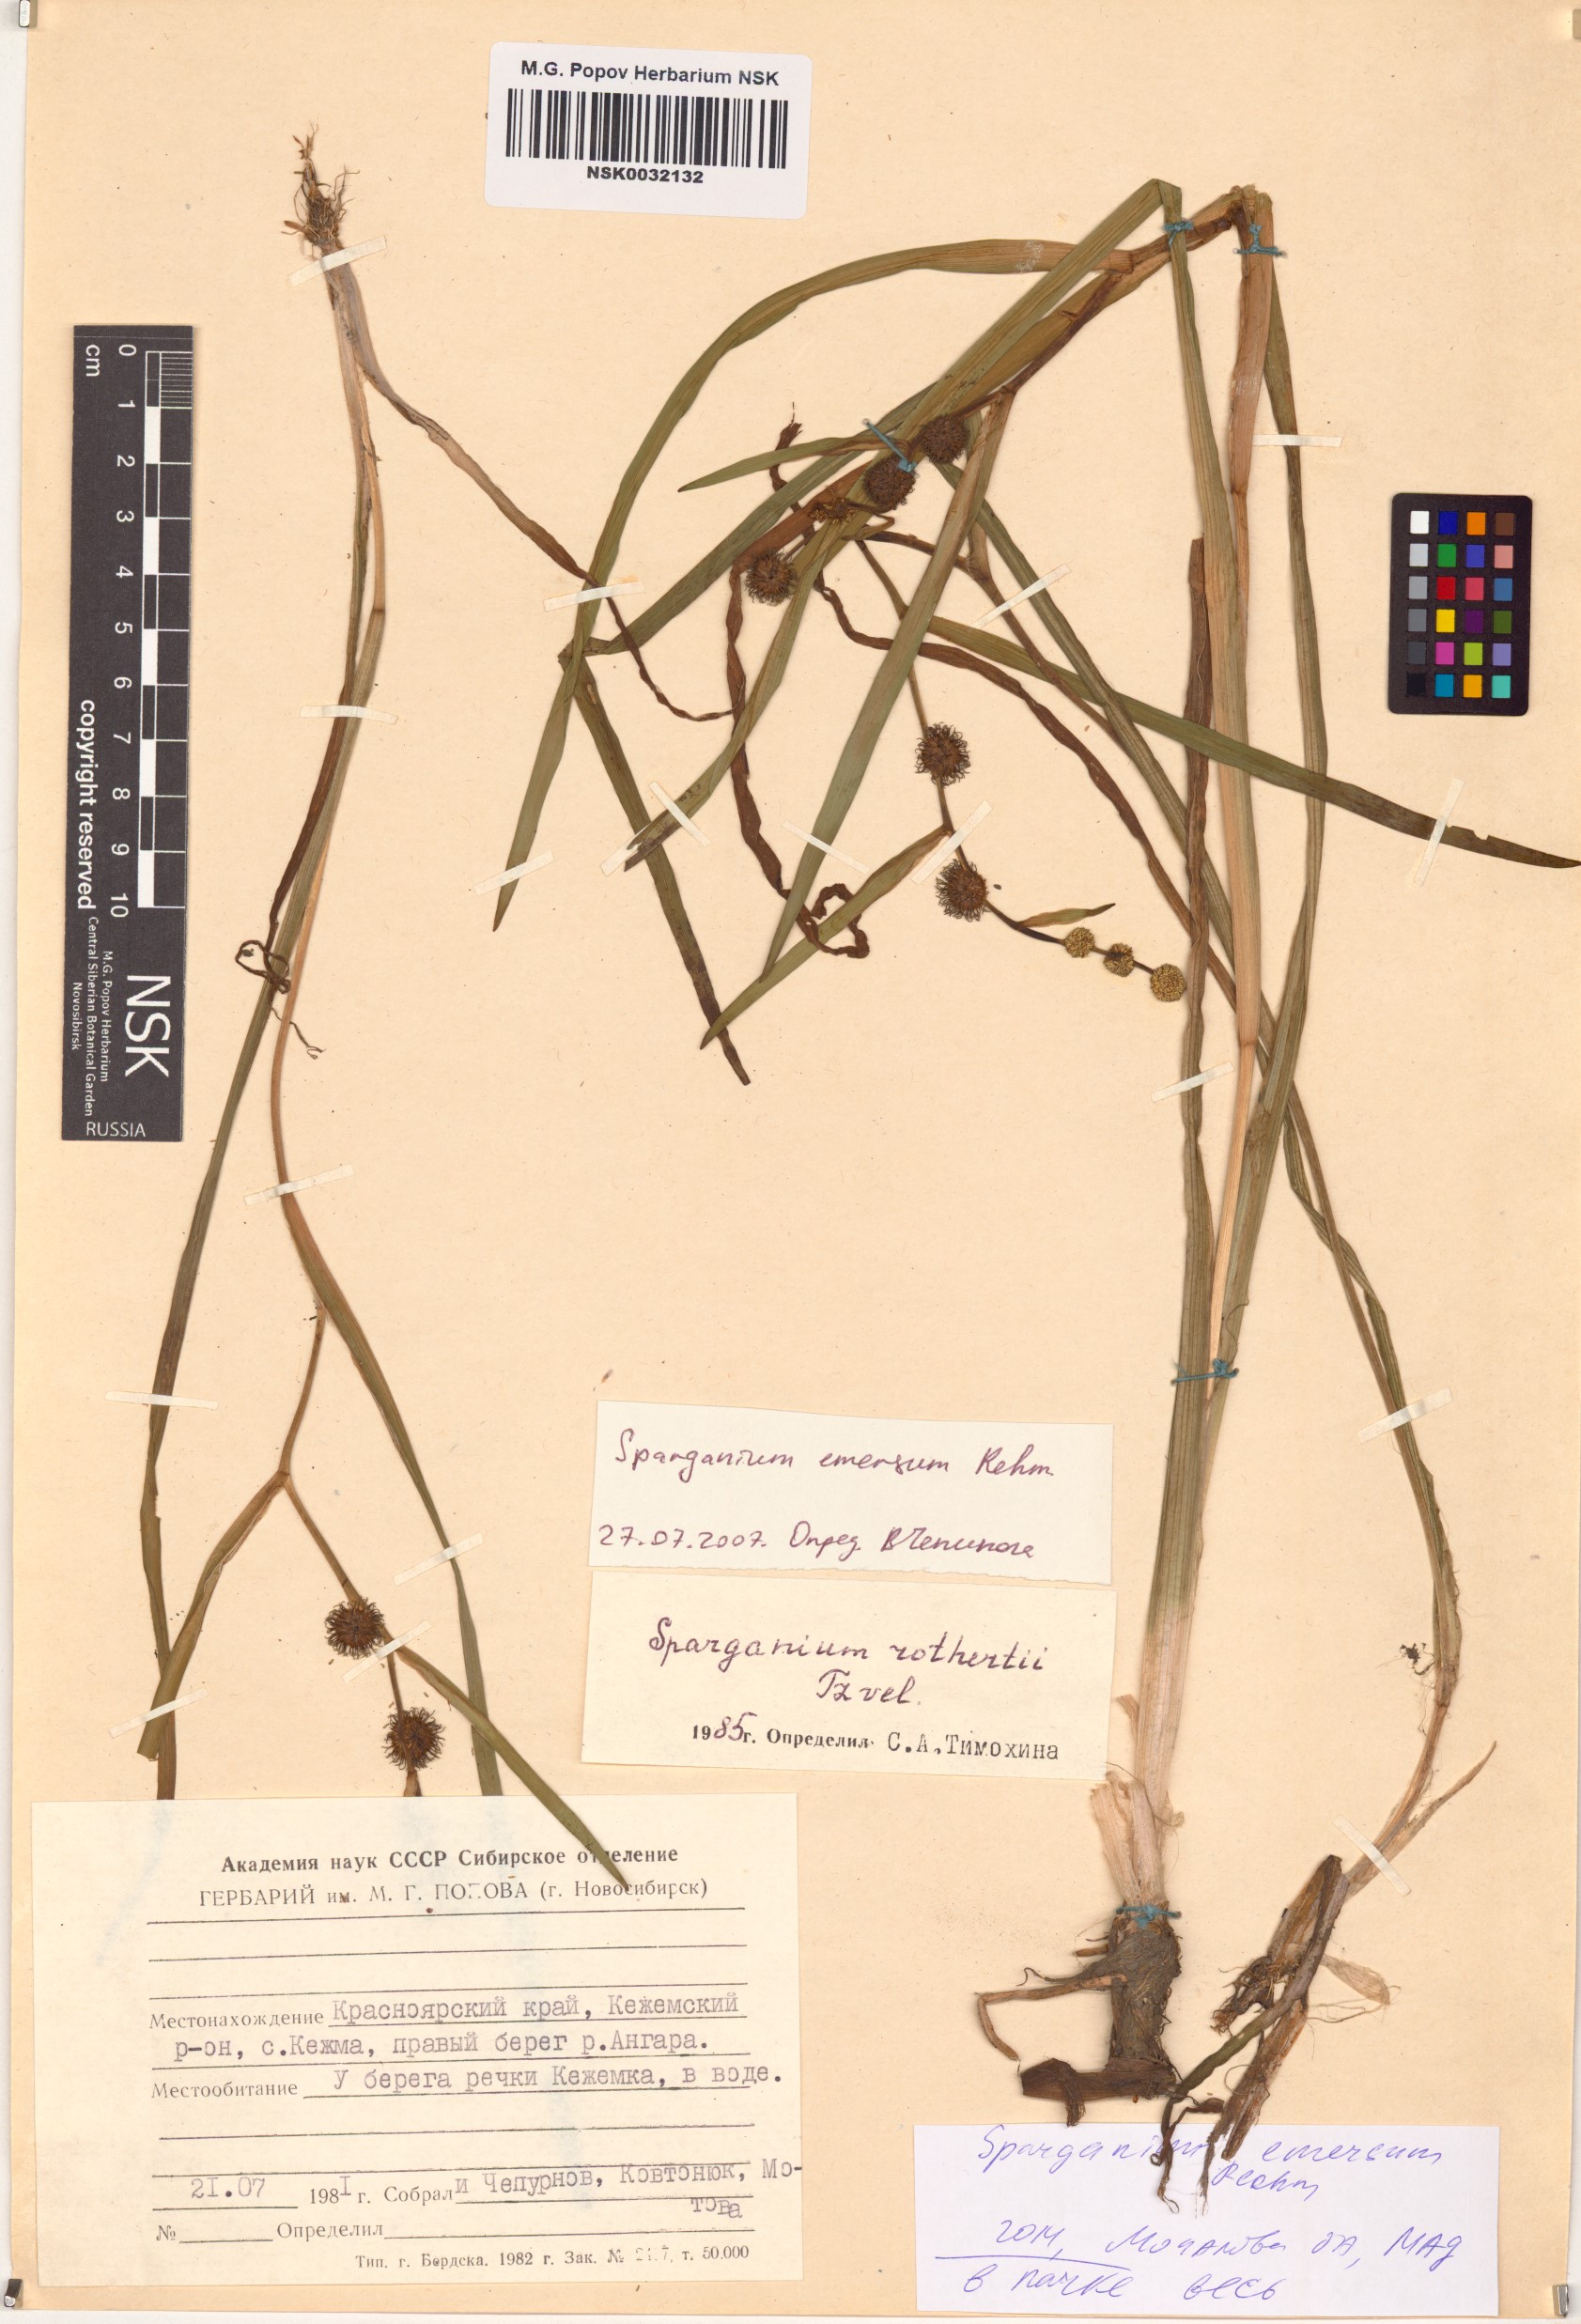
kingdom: Plantae
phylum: Tracheophyta
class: Liliopsida
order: Poales
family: Typhaceae
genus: Sparganium
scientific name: Sparganium emersum
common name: Unbranched bur-reed
